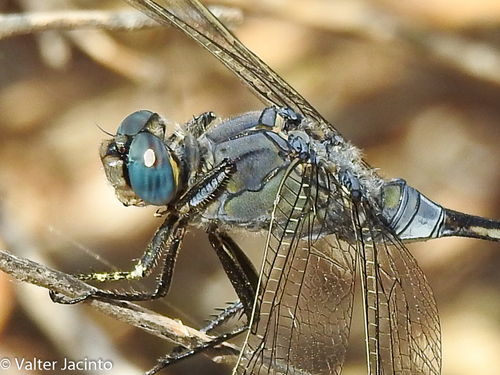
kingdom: Animalia
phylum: Arthropoda
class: Insecta
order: Odonata
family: Libellulidae
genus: Orthetrum
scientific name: Orthetrum trinacria
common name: Long skimmer
